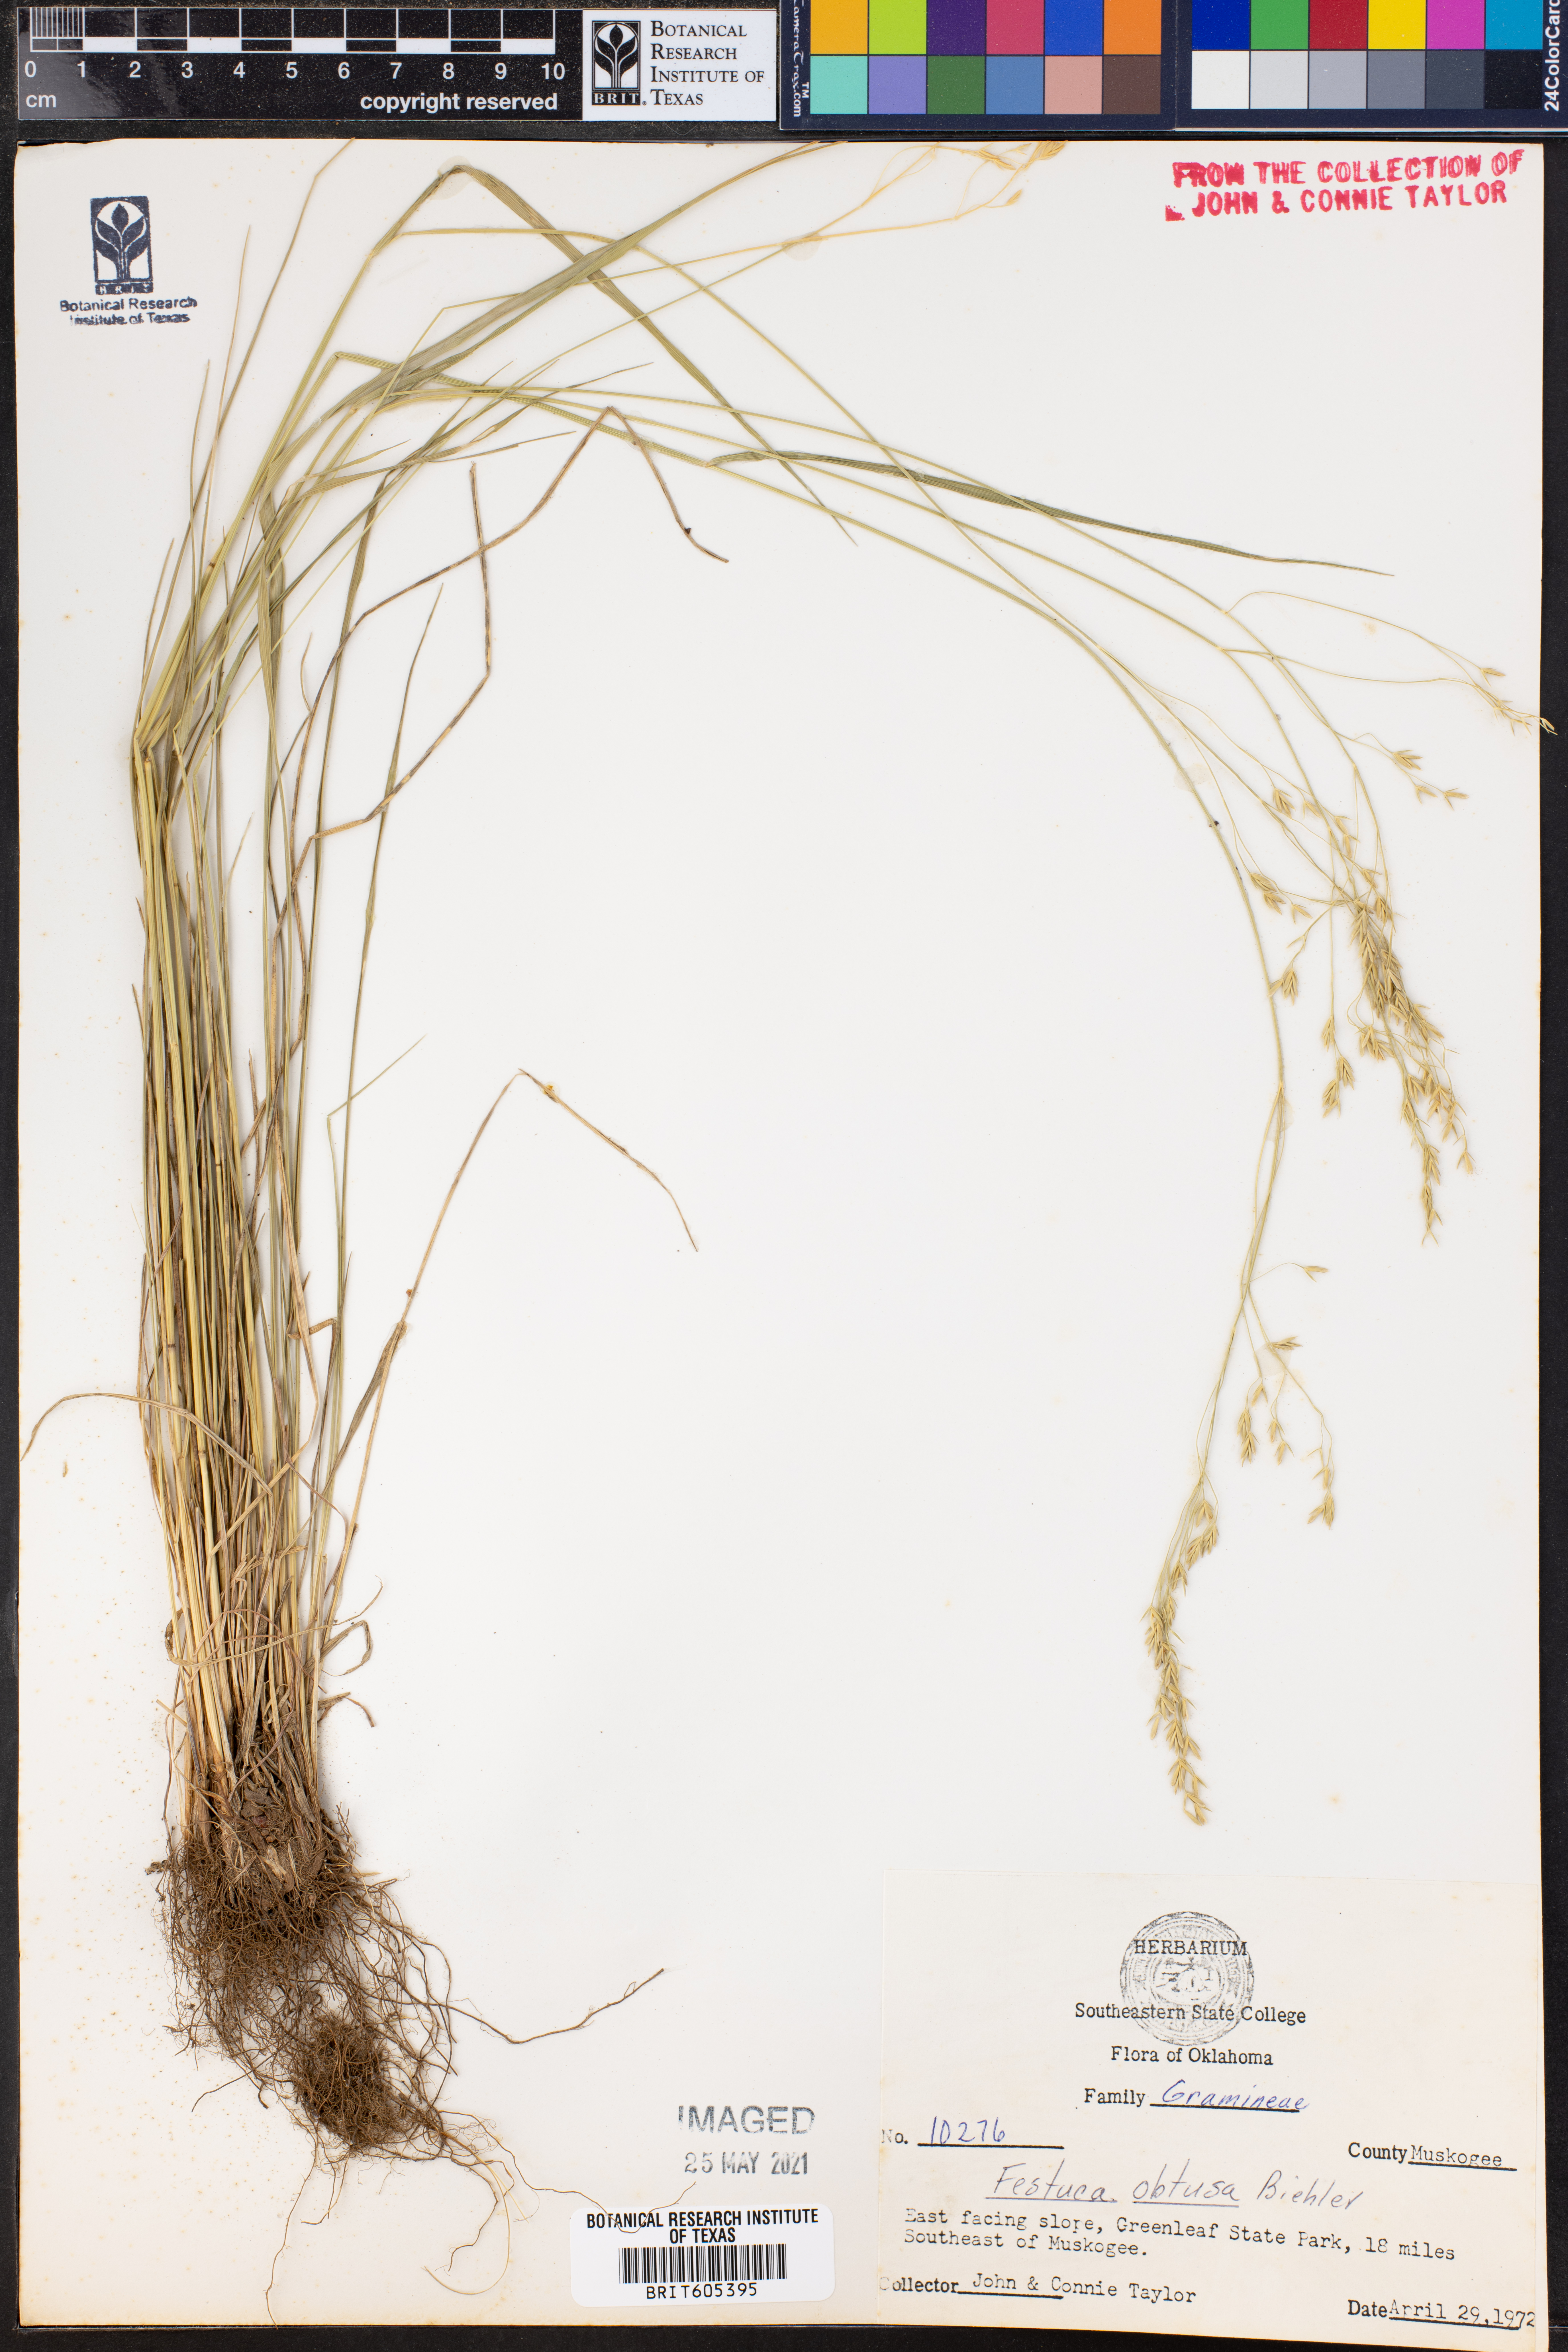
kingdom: Plantae
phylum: Tracheophyta
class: Liliopsida
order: Poales
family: Poaceae
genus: Festuca
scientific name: Festuca subverticillata
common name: Nodding fescue
